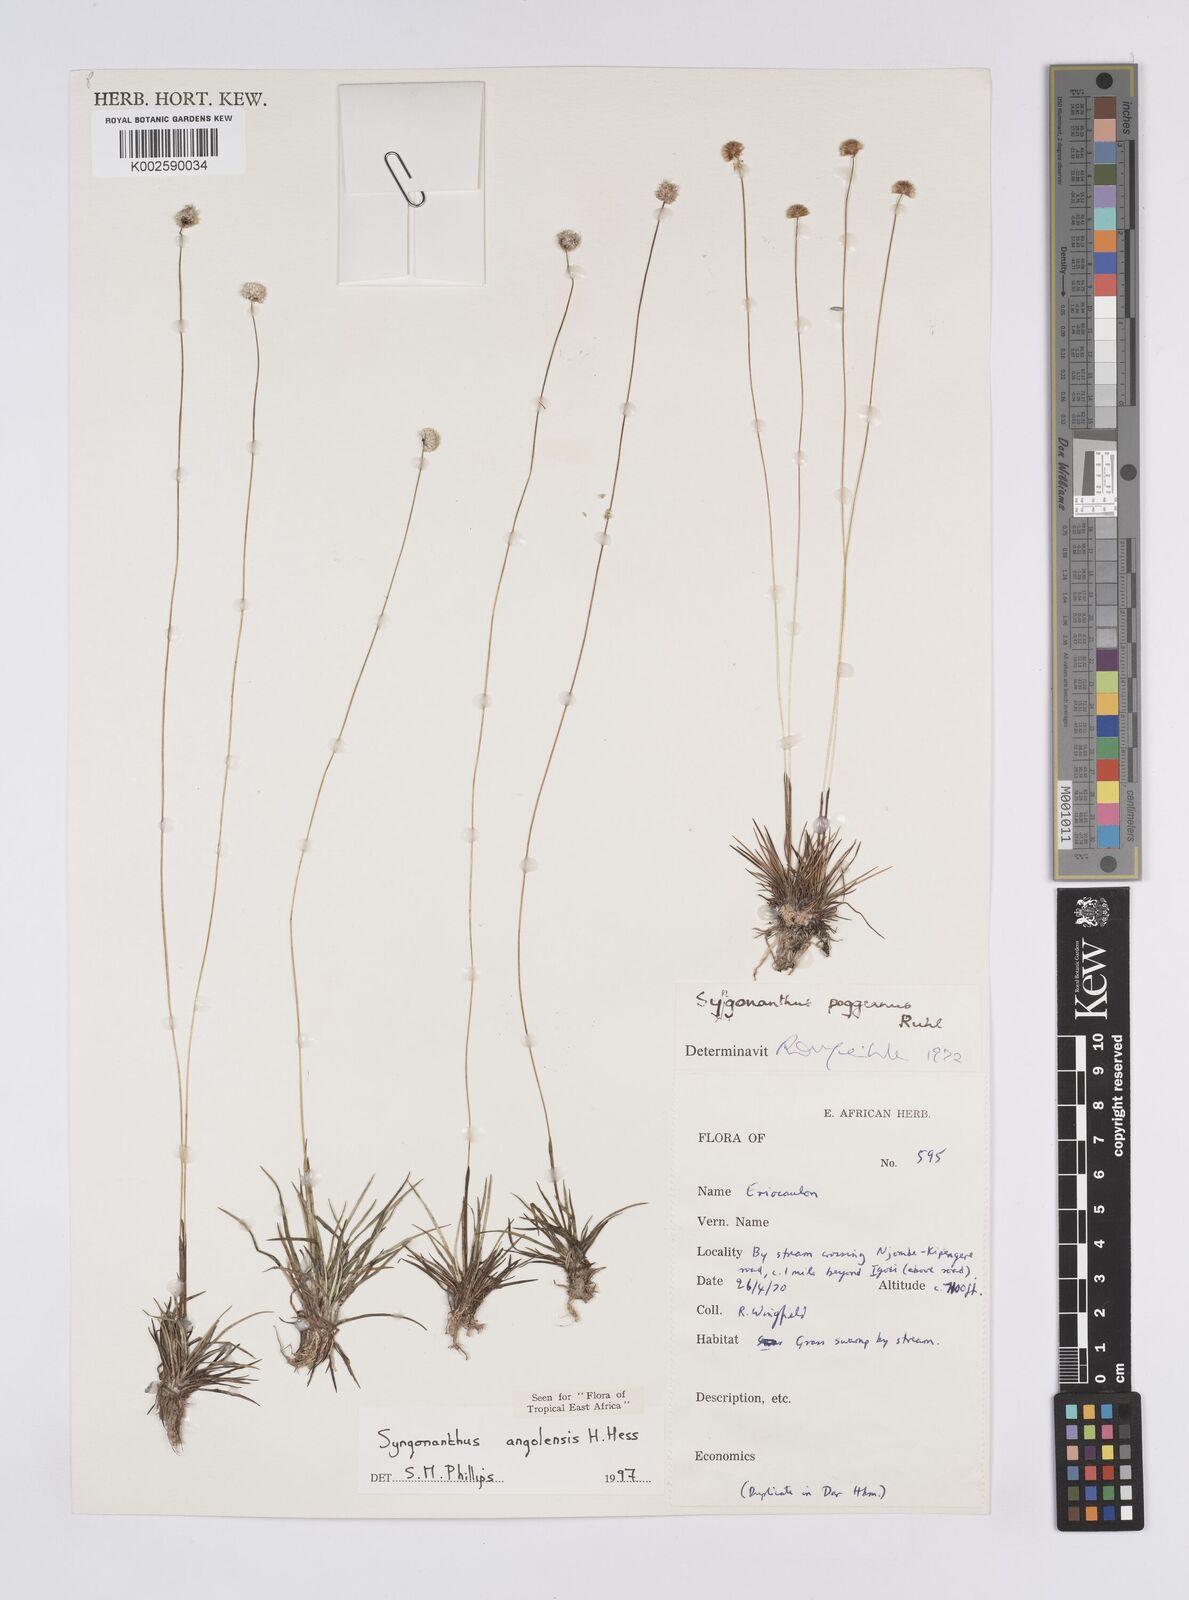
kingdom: Plantae
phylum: Tracheophyta
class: Liliopsida
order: Poales
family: Eriocaulaceae
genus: Syngonanthus
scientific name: Syngonanthus angolensis
